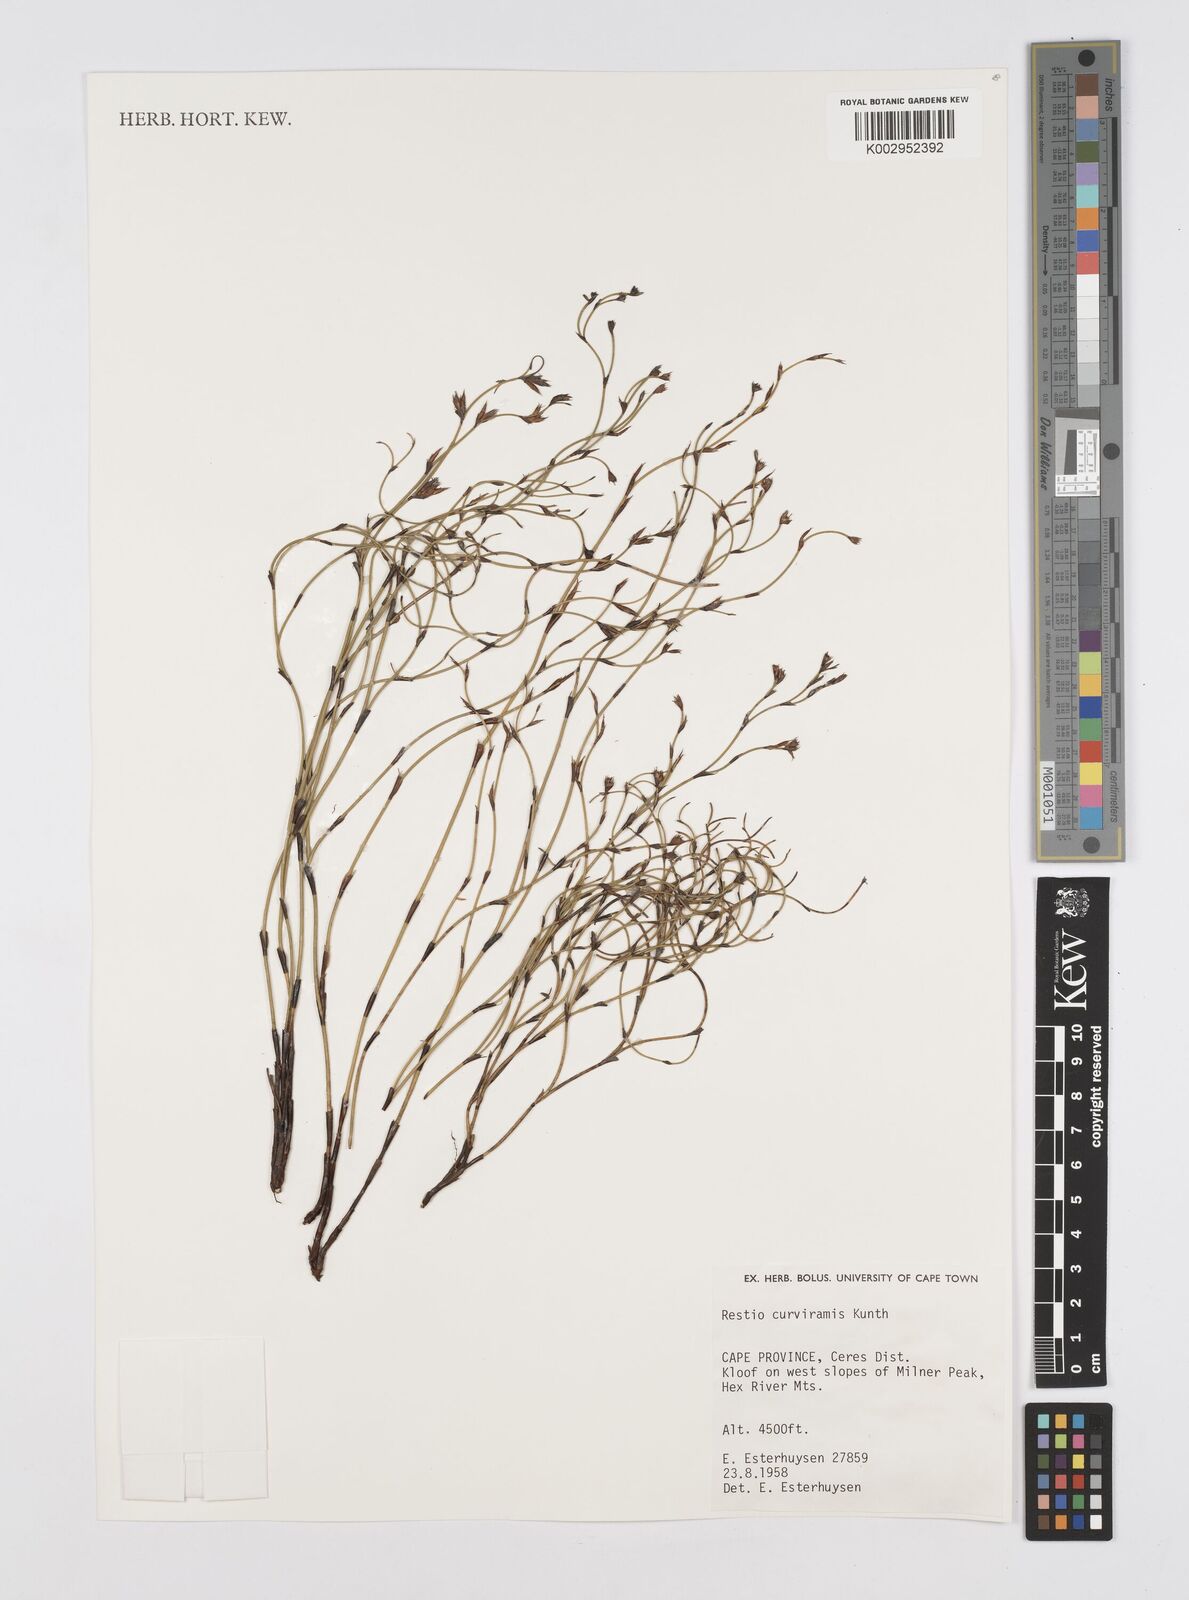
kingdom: Plantae
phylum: Tracheophyta
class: Liliopsida
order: Poales
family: Restionaceae
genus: Restio
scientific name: Restio curviramis
